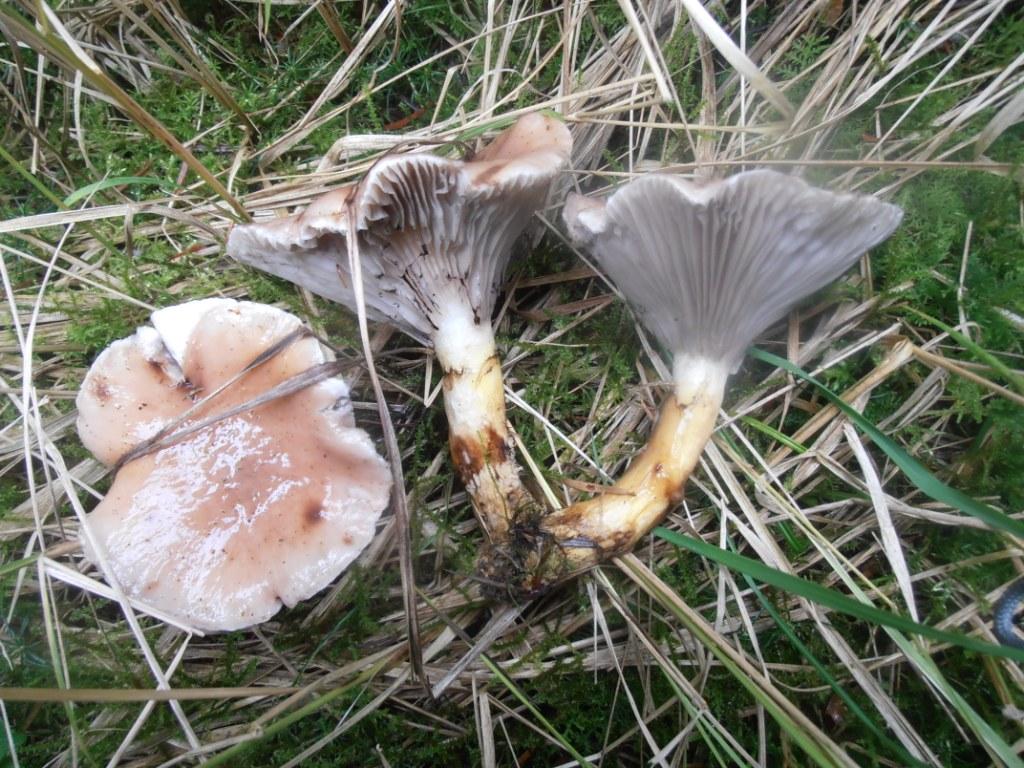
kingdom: Fungi
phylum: Basidiomycota
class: Agaricomycetes
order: Boletales
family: Gomphidiaceae
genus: Gomphidius
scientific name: Gomphidius glutinosus
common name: grå slimslør
